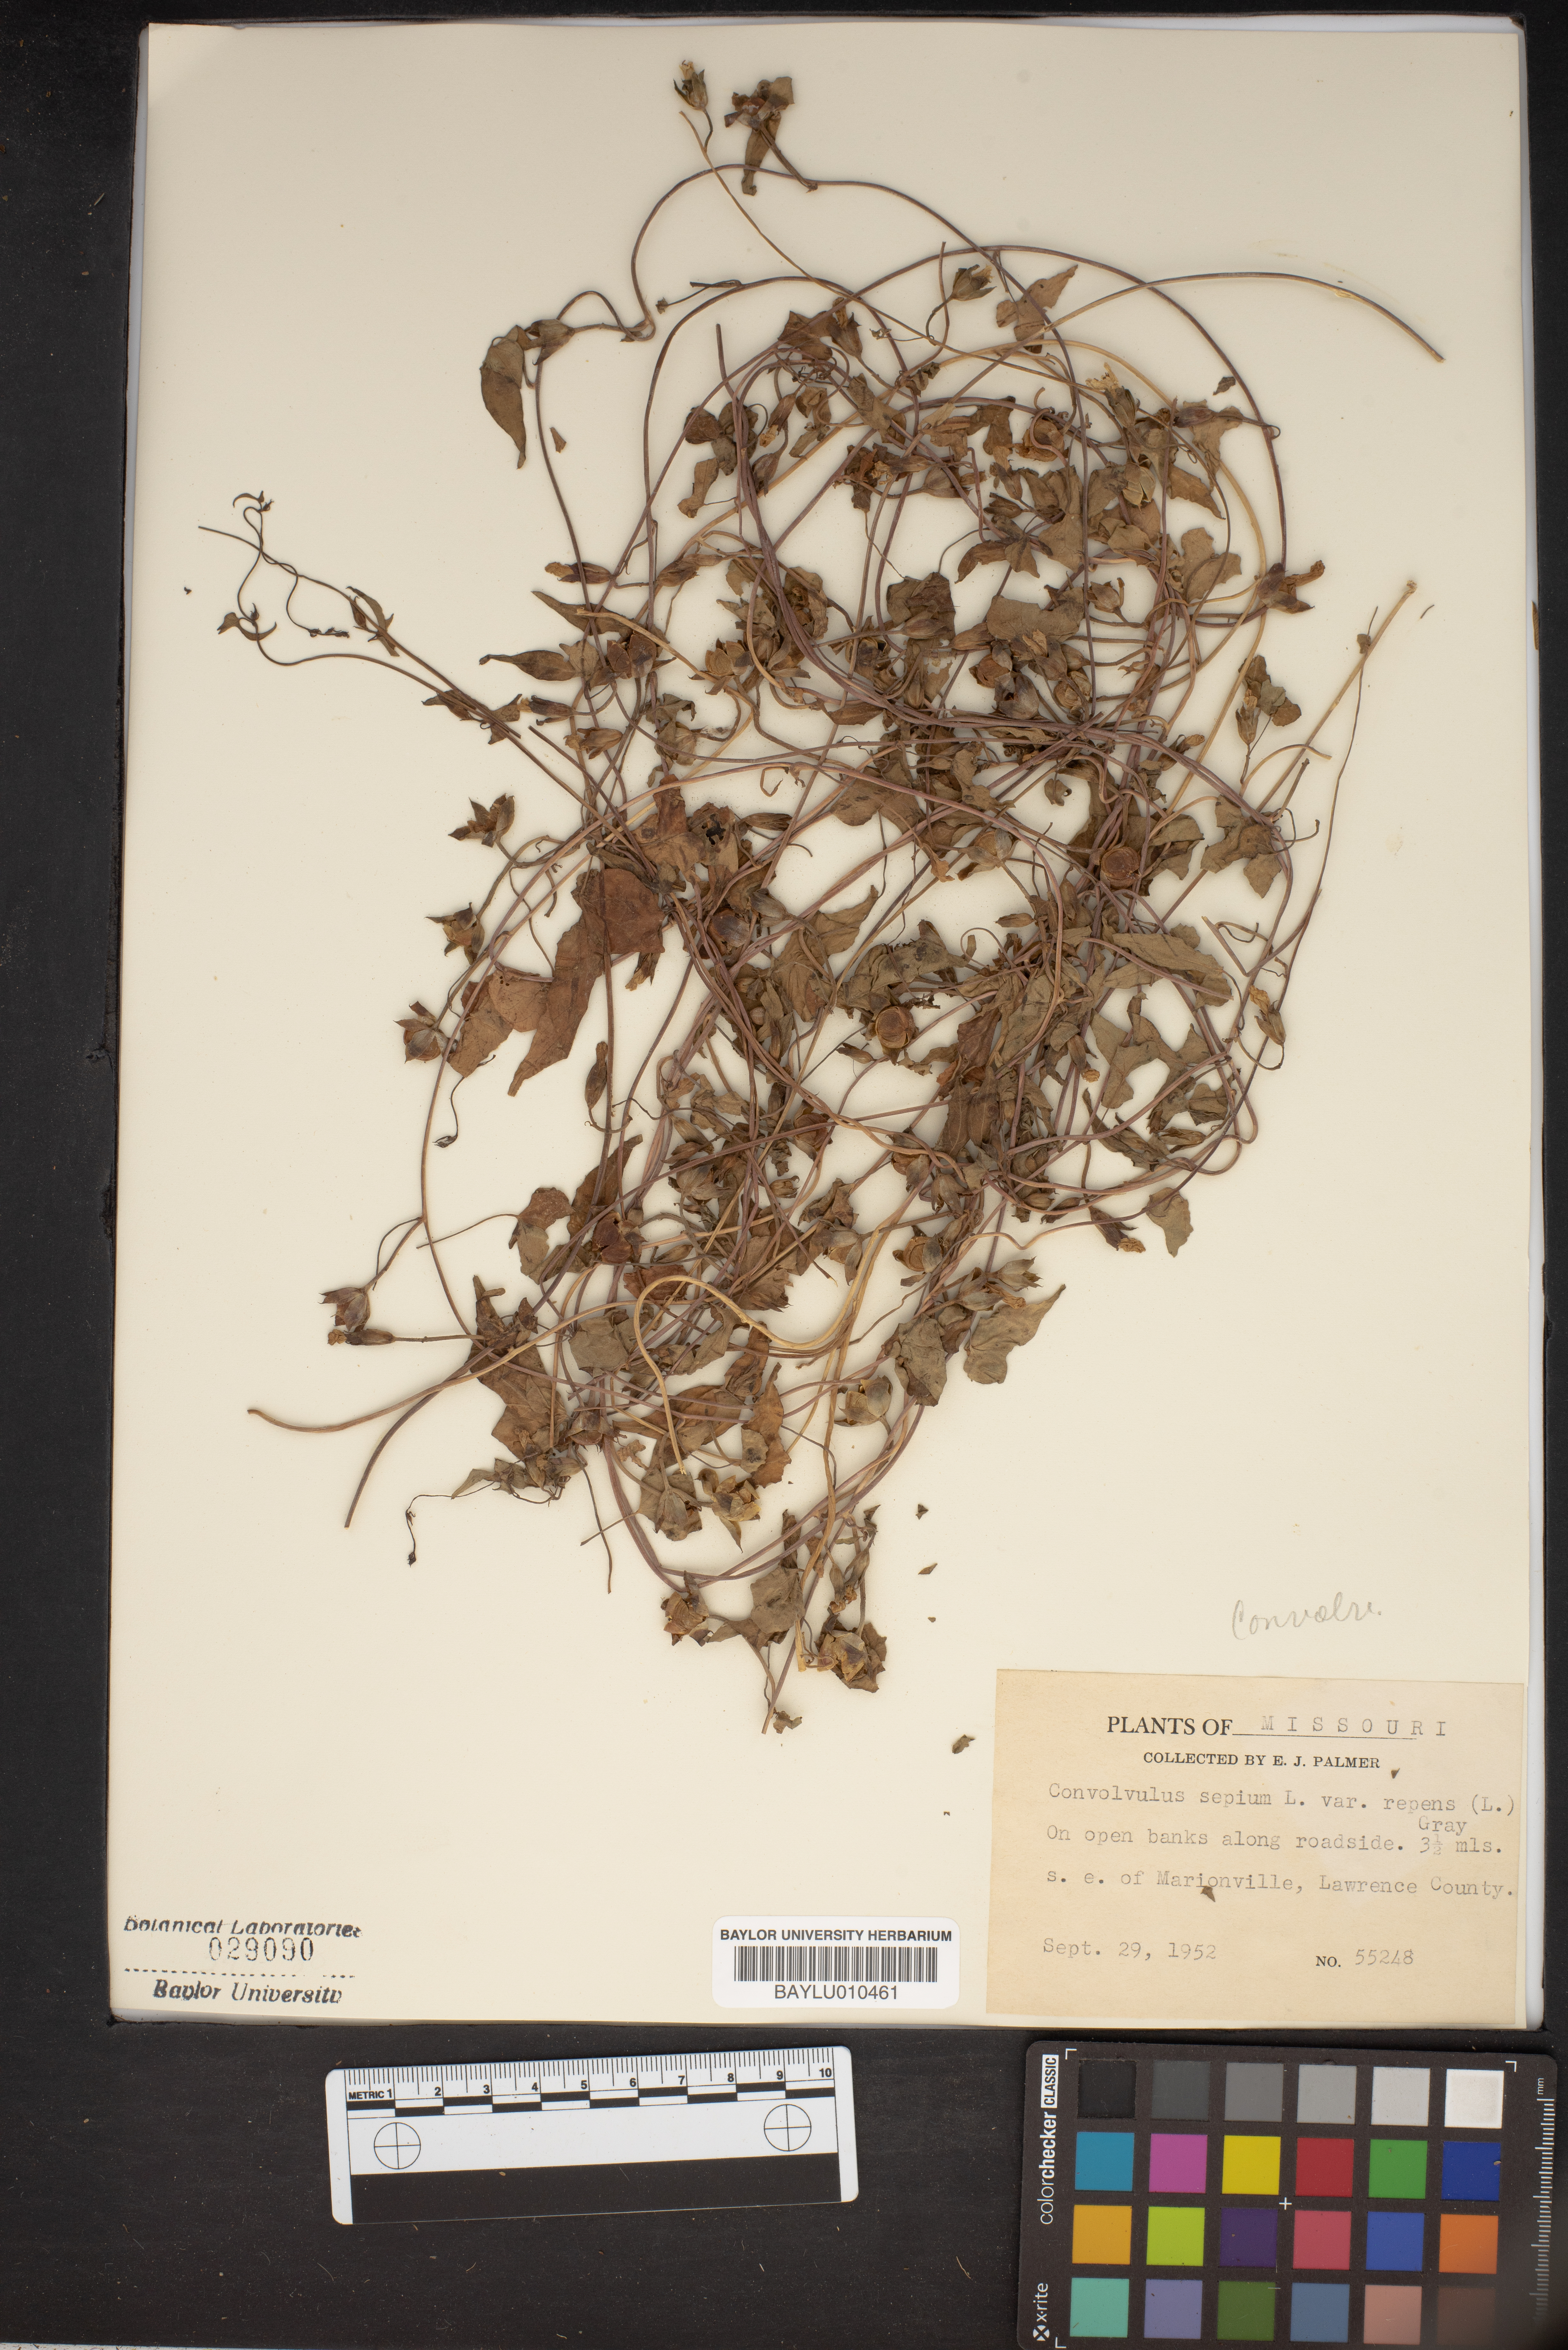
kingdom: Plantae
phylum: Tracheophyta
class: Magnoliopsida
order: Solanales
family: Convolvulaceae
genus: Calystegia
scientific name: Calystegia sepium
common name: Hedge bindweed
